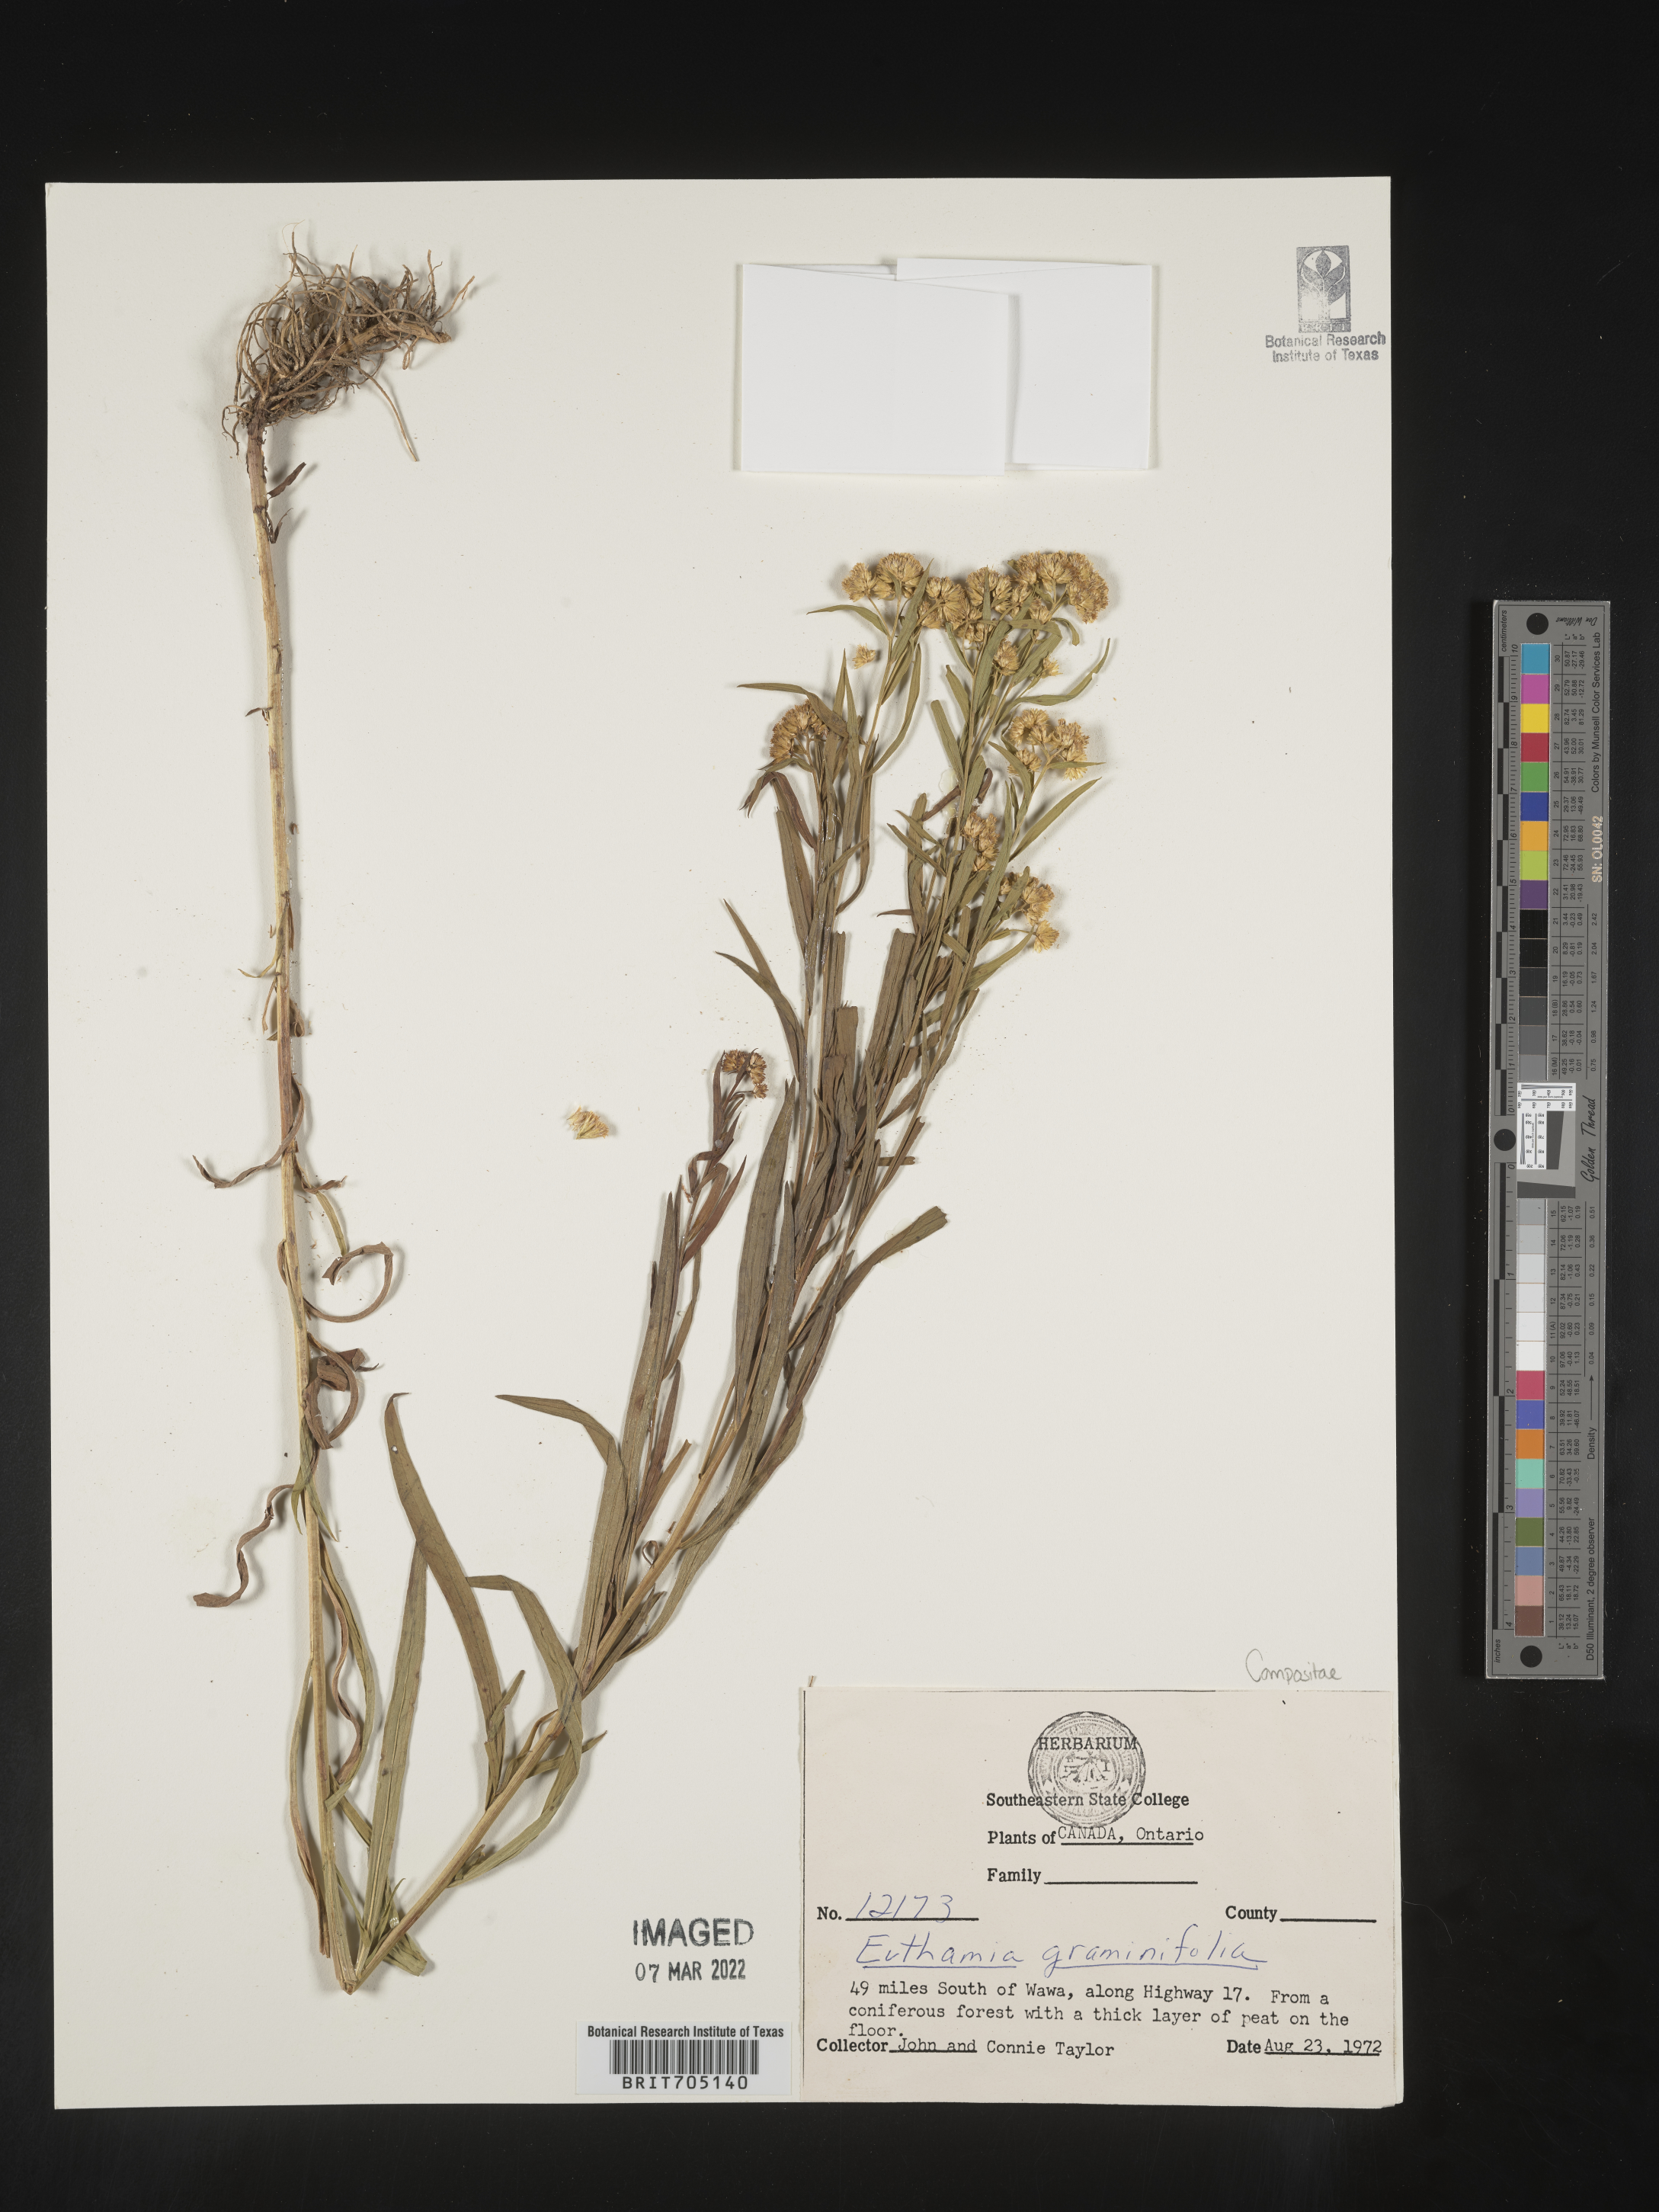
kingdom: Plantae
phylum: Tracheophyta
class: Magnoliopsida
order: Asterales
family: Asteraceae
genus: Euthamia
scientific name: Euthamia graminifolia
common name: Common goldentop
